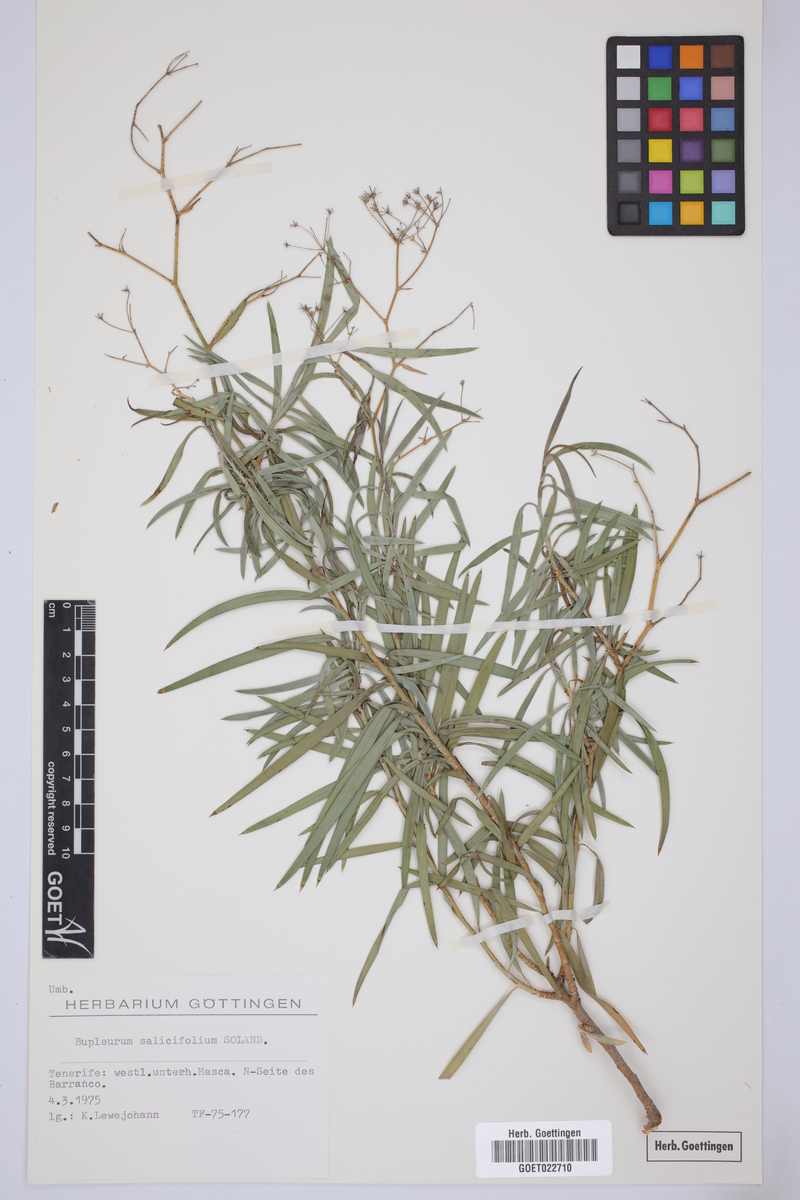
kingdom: Plantae
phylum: Tracheophyta
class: Magnoliopsida
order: Apiales
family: Apiaceae
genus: Bupleurum
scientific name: Bupleurum salicifolium
